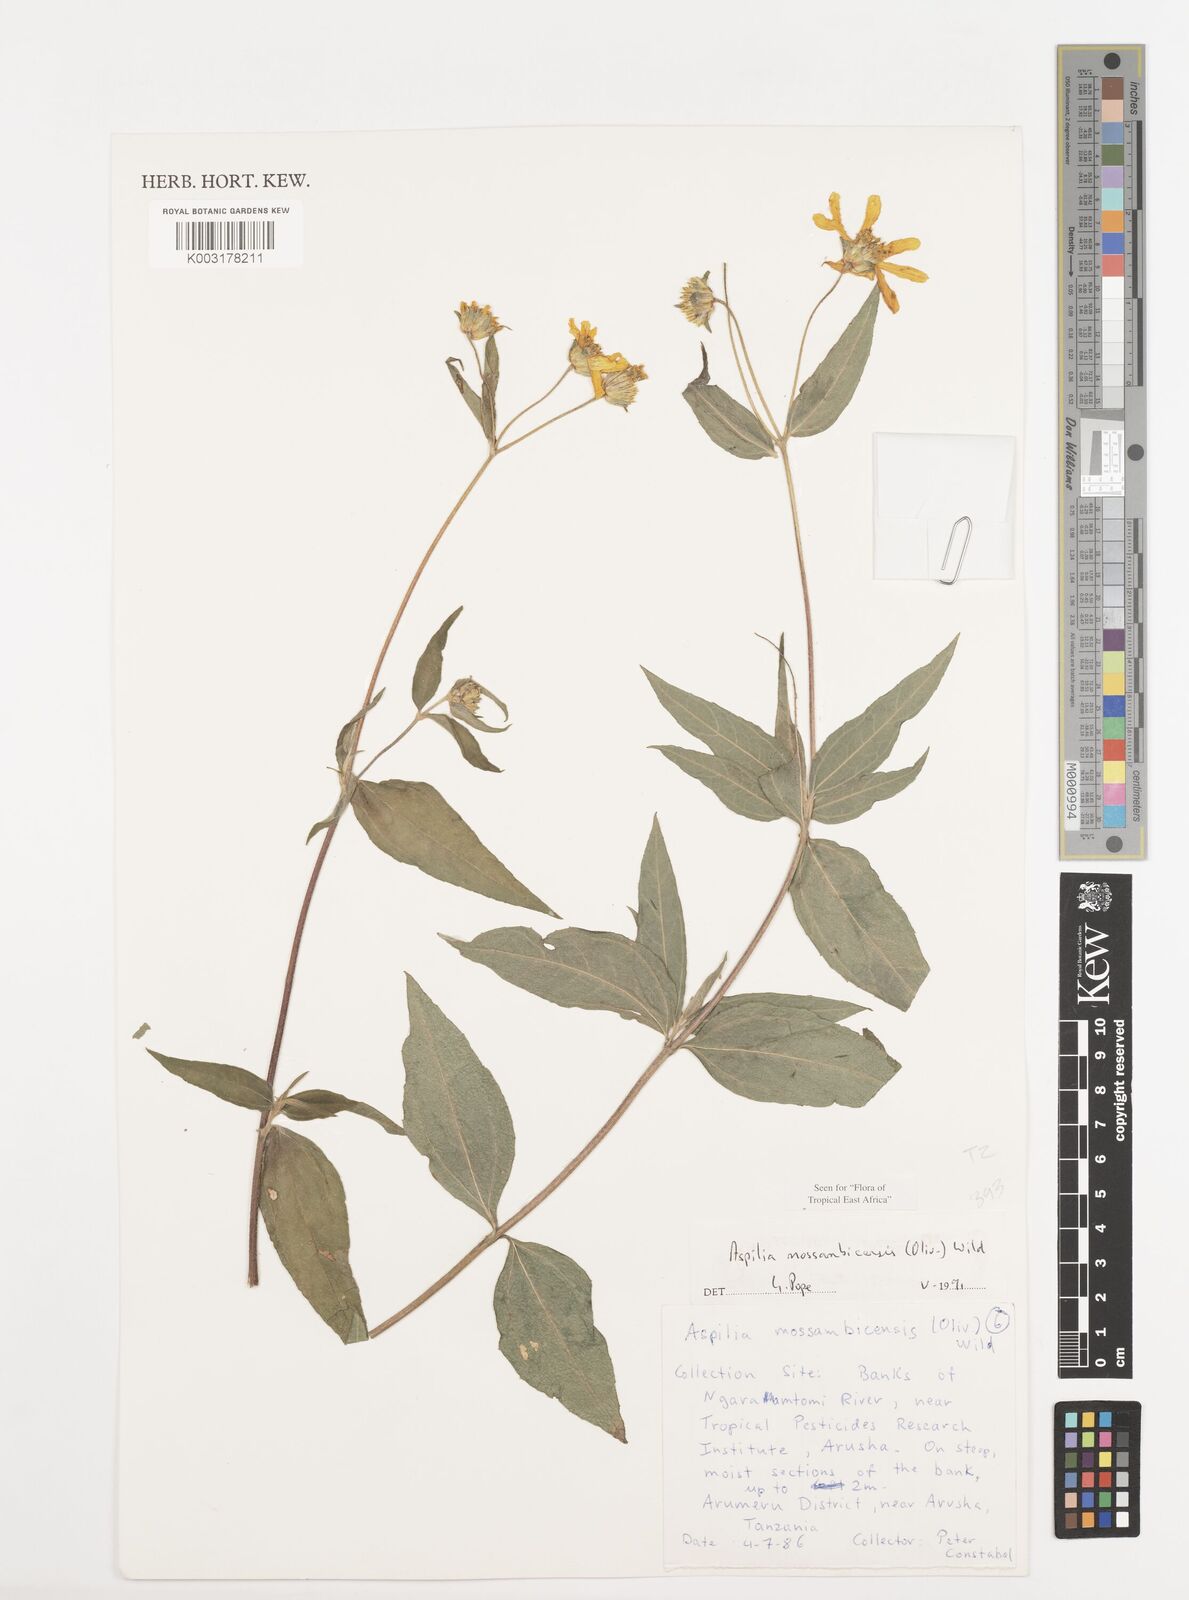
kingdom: Plantae
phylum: Tracheophyta
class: Magnoliopsida
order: Asterales
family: Asteraceae
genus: Aspilia
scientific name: Aspilia mossambicensis
